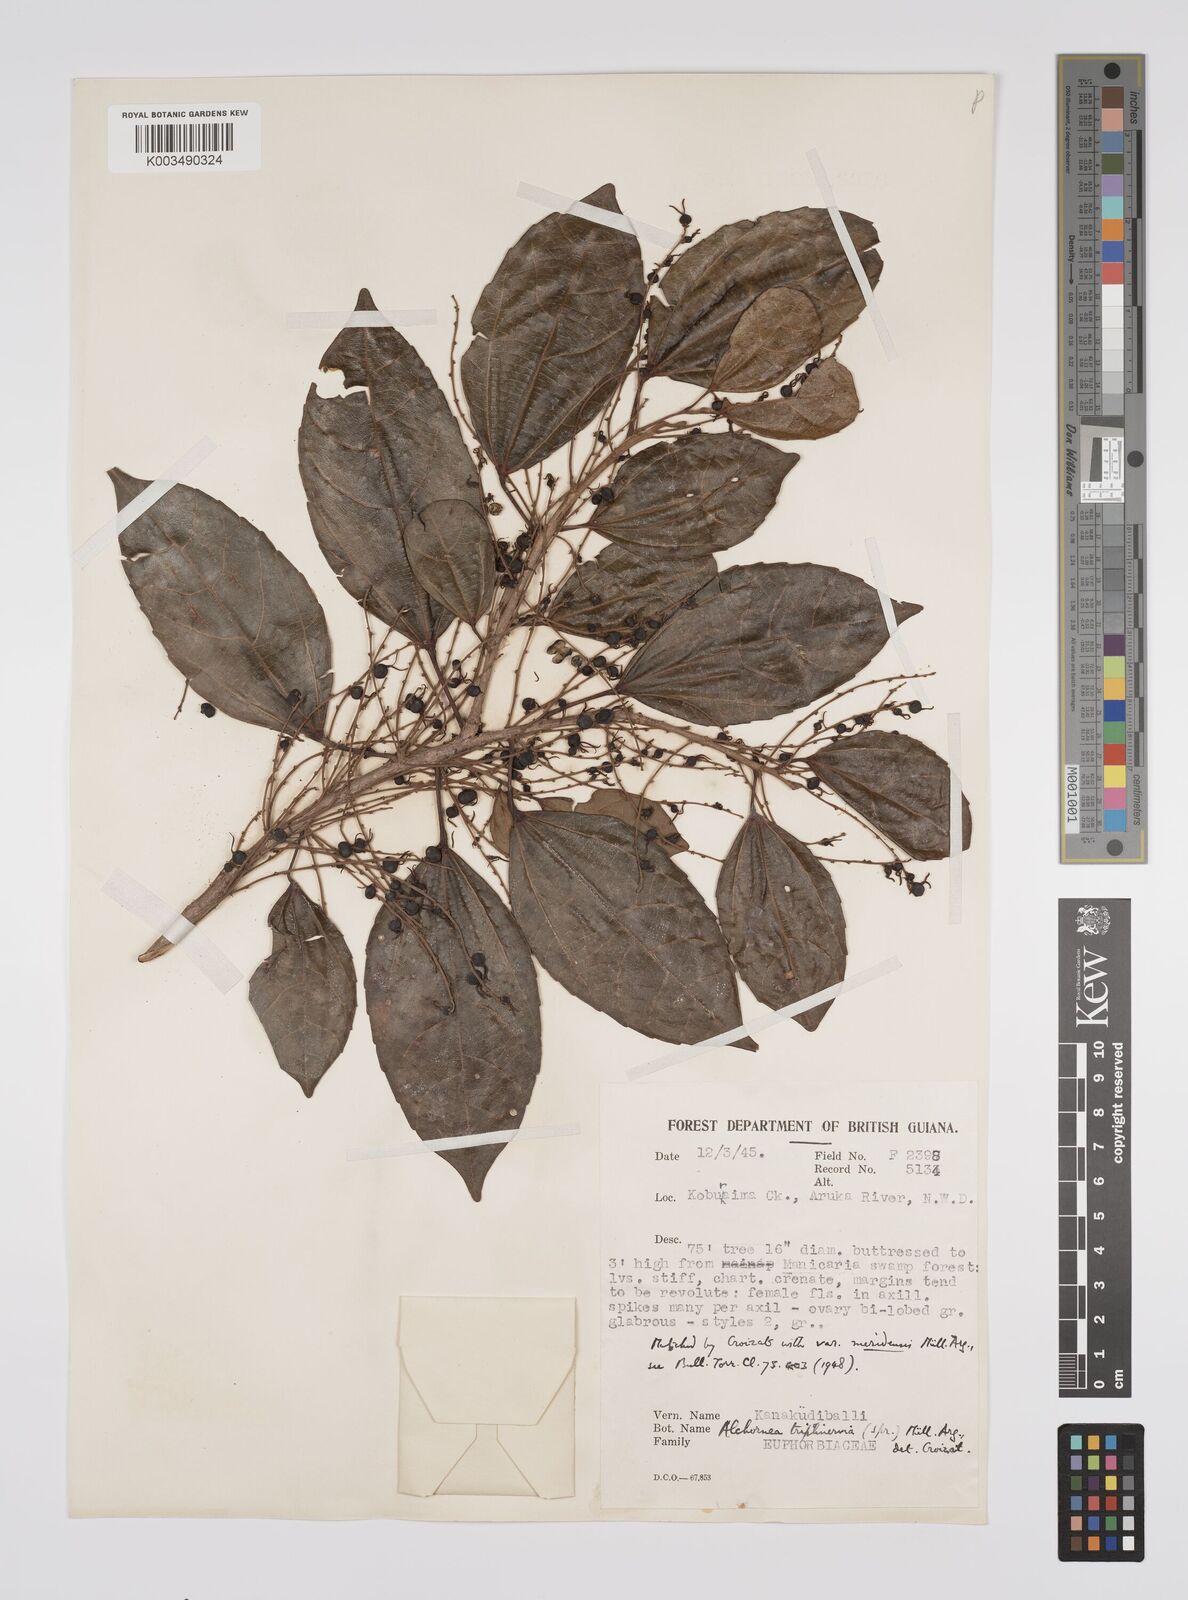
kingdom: Plantae
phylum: Tracheophyta
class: Magnoliopsida
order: Malpighiales
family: Euphorbiaceae
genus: Alchornea
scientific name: Alchornea triplinervia
